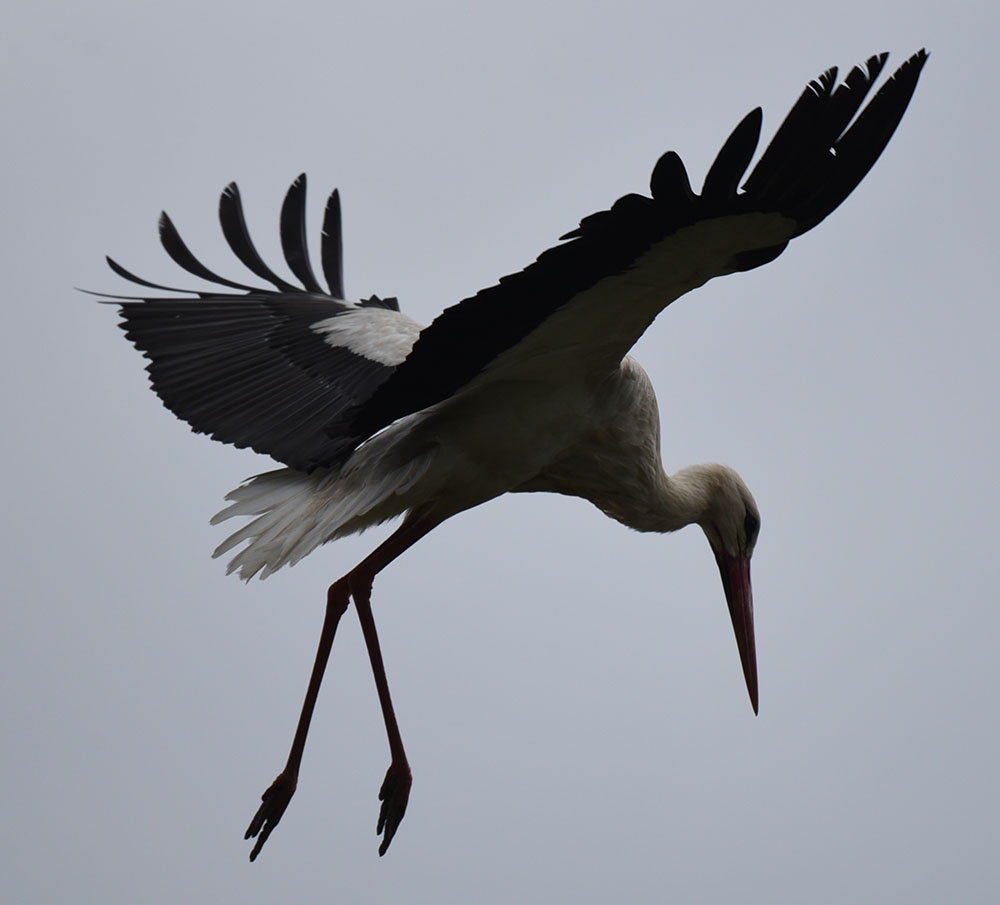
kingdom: Animalia
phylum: Chordata
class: Aves
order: Ciconiiformes
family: Ciconiidae
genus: Ciconia
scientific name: Ciconia ciconia
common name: White stork
